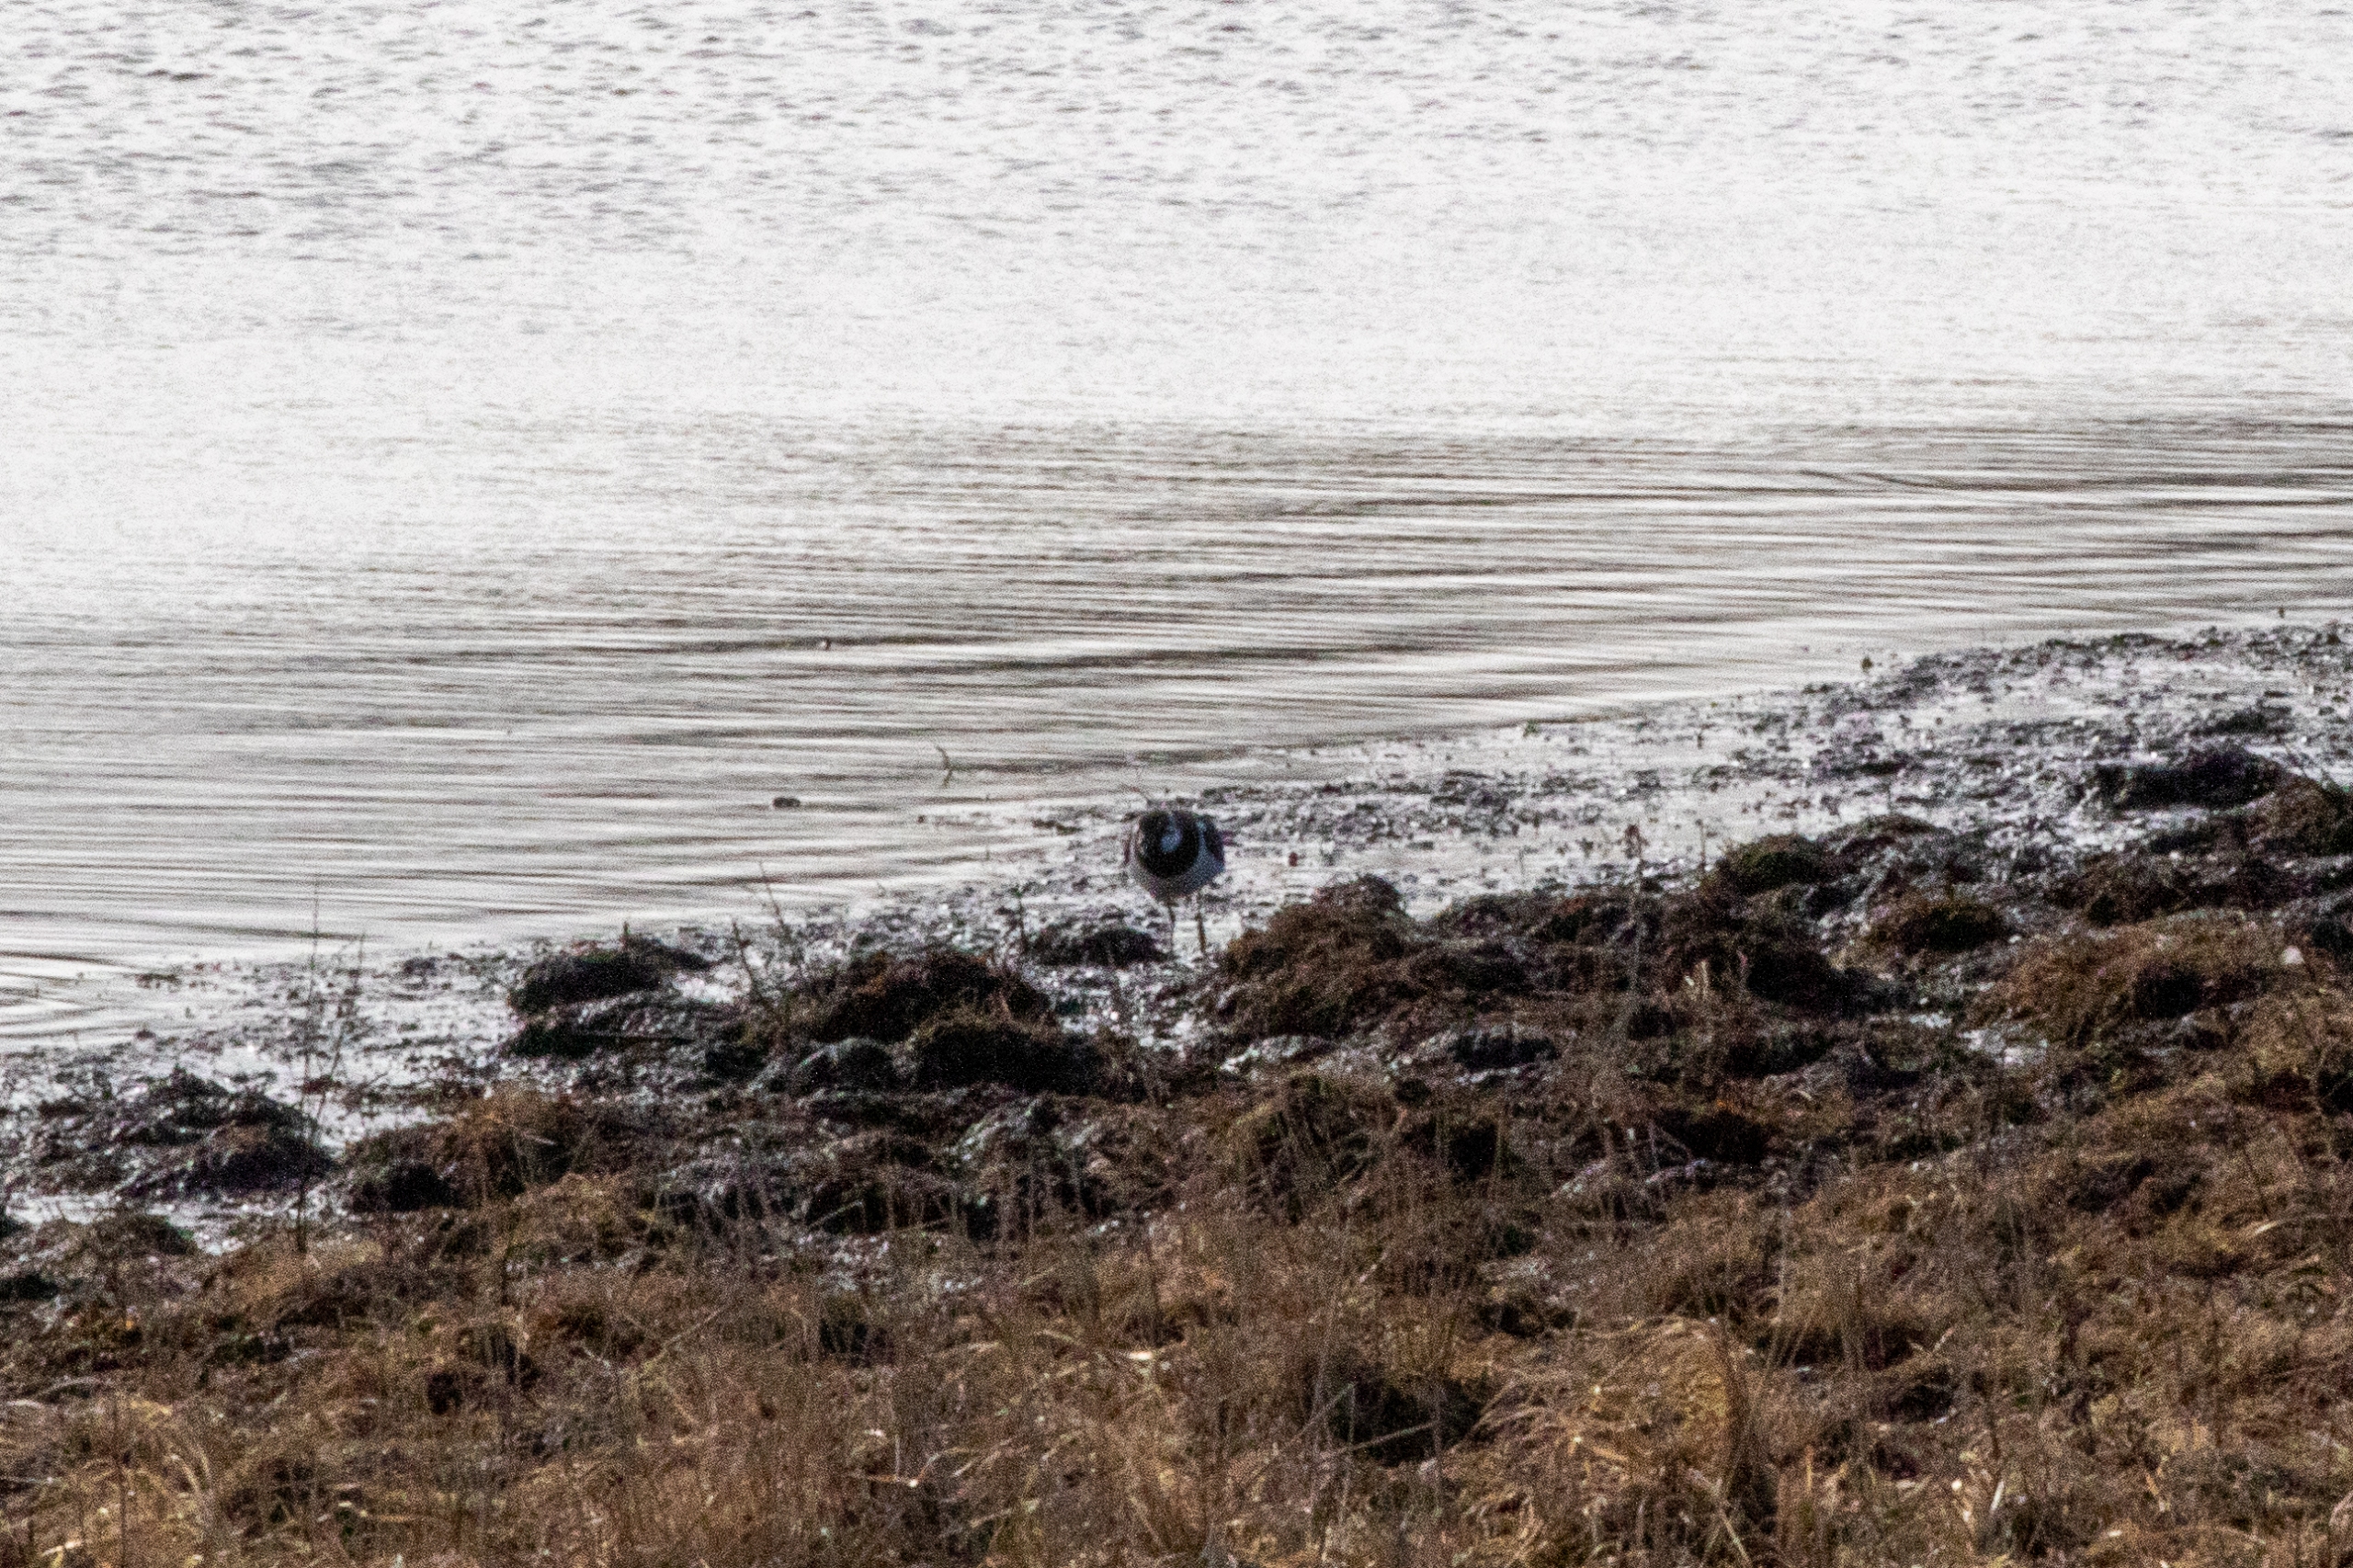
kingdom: Animalia
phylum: Chordata
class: Aves
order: Charadriiformes
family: Charadriidae
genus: Vanellus
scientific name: Vanellus vanellus
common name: Vibe
